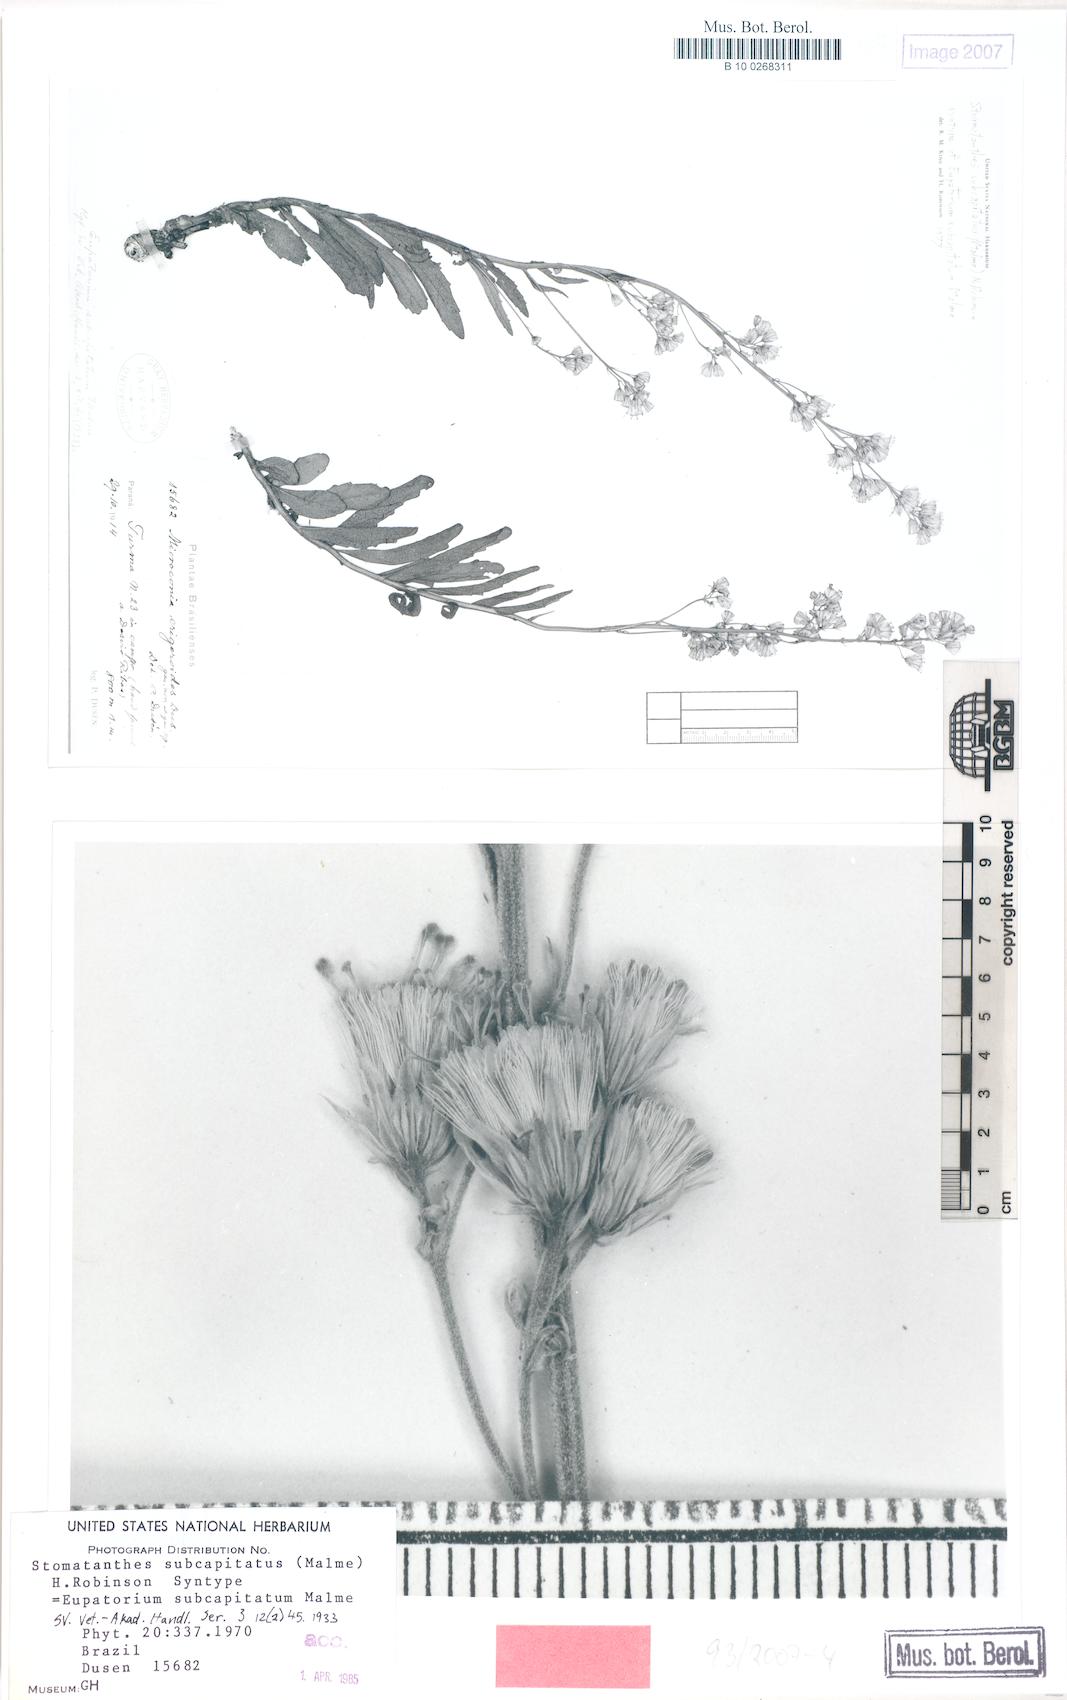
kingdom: Plantae
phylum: Tracheophyta
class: Magnoliopsida
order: Asterales
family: Asteraceae
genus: Stomatanthes
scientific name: Stomatanthes subcapitatus
